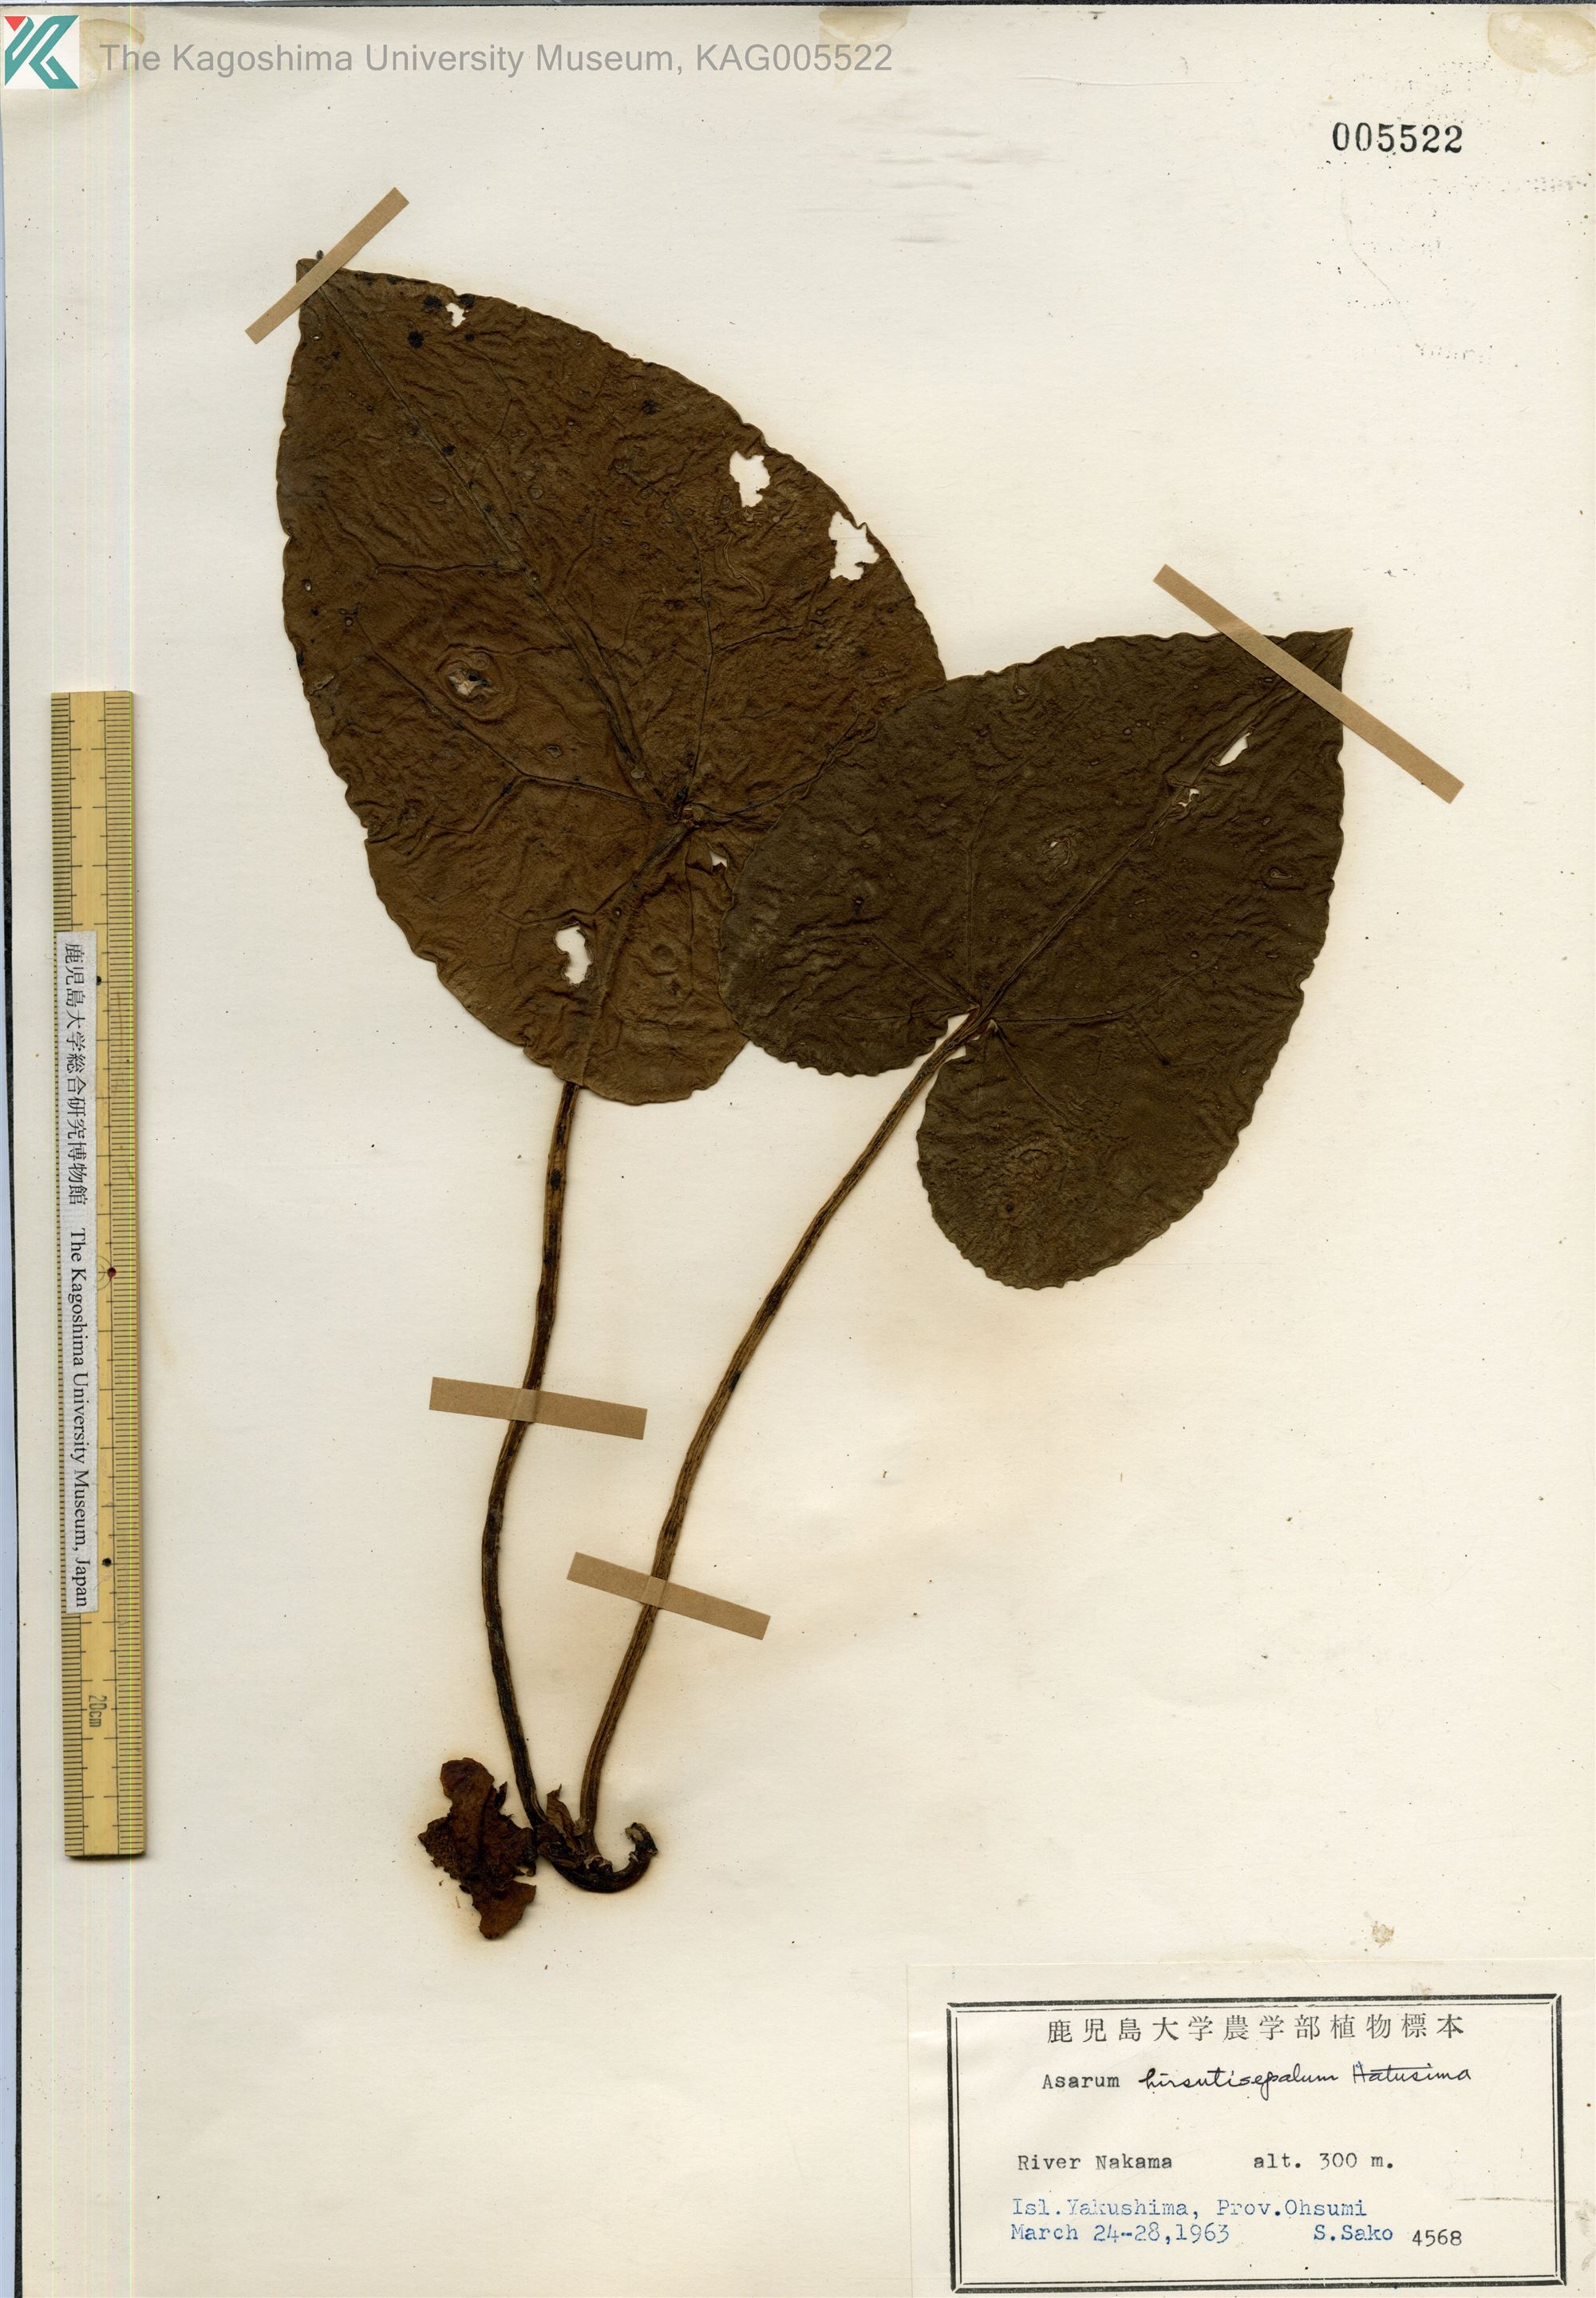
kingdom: Plantae
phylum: Tracheophyta
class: Magnoliopsida
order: Piperales
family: Aristolochiaceae
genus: Asarum
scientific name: Asarum yakusimense
